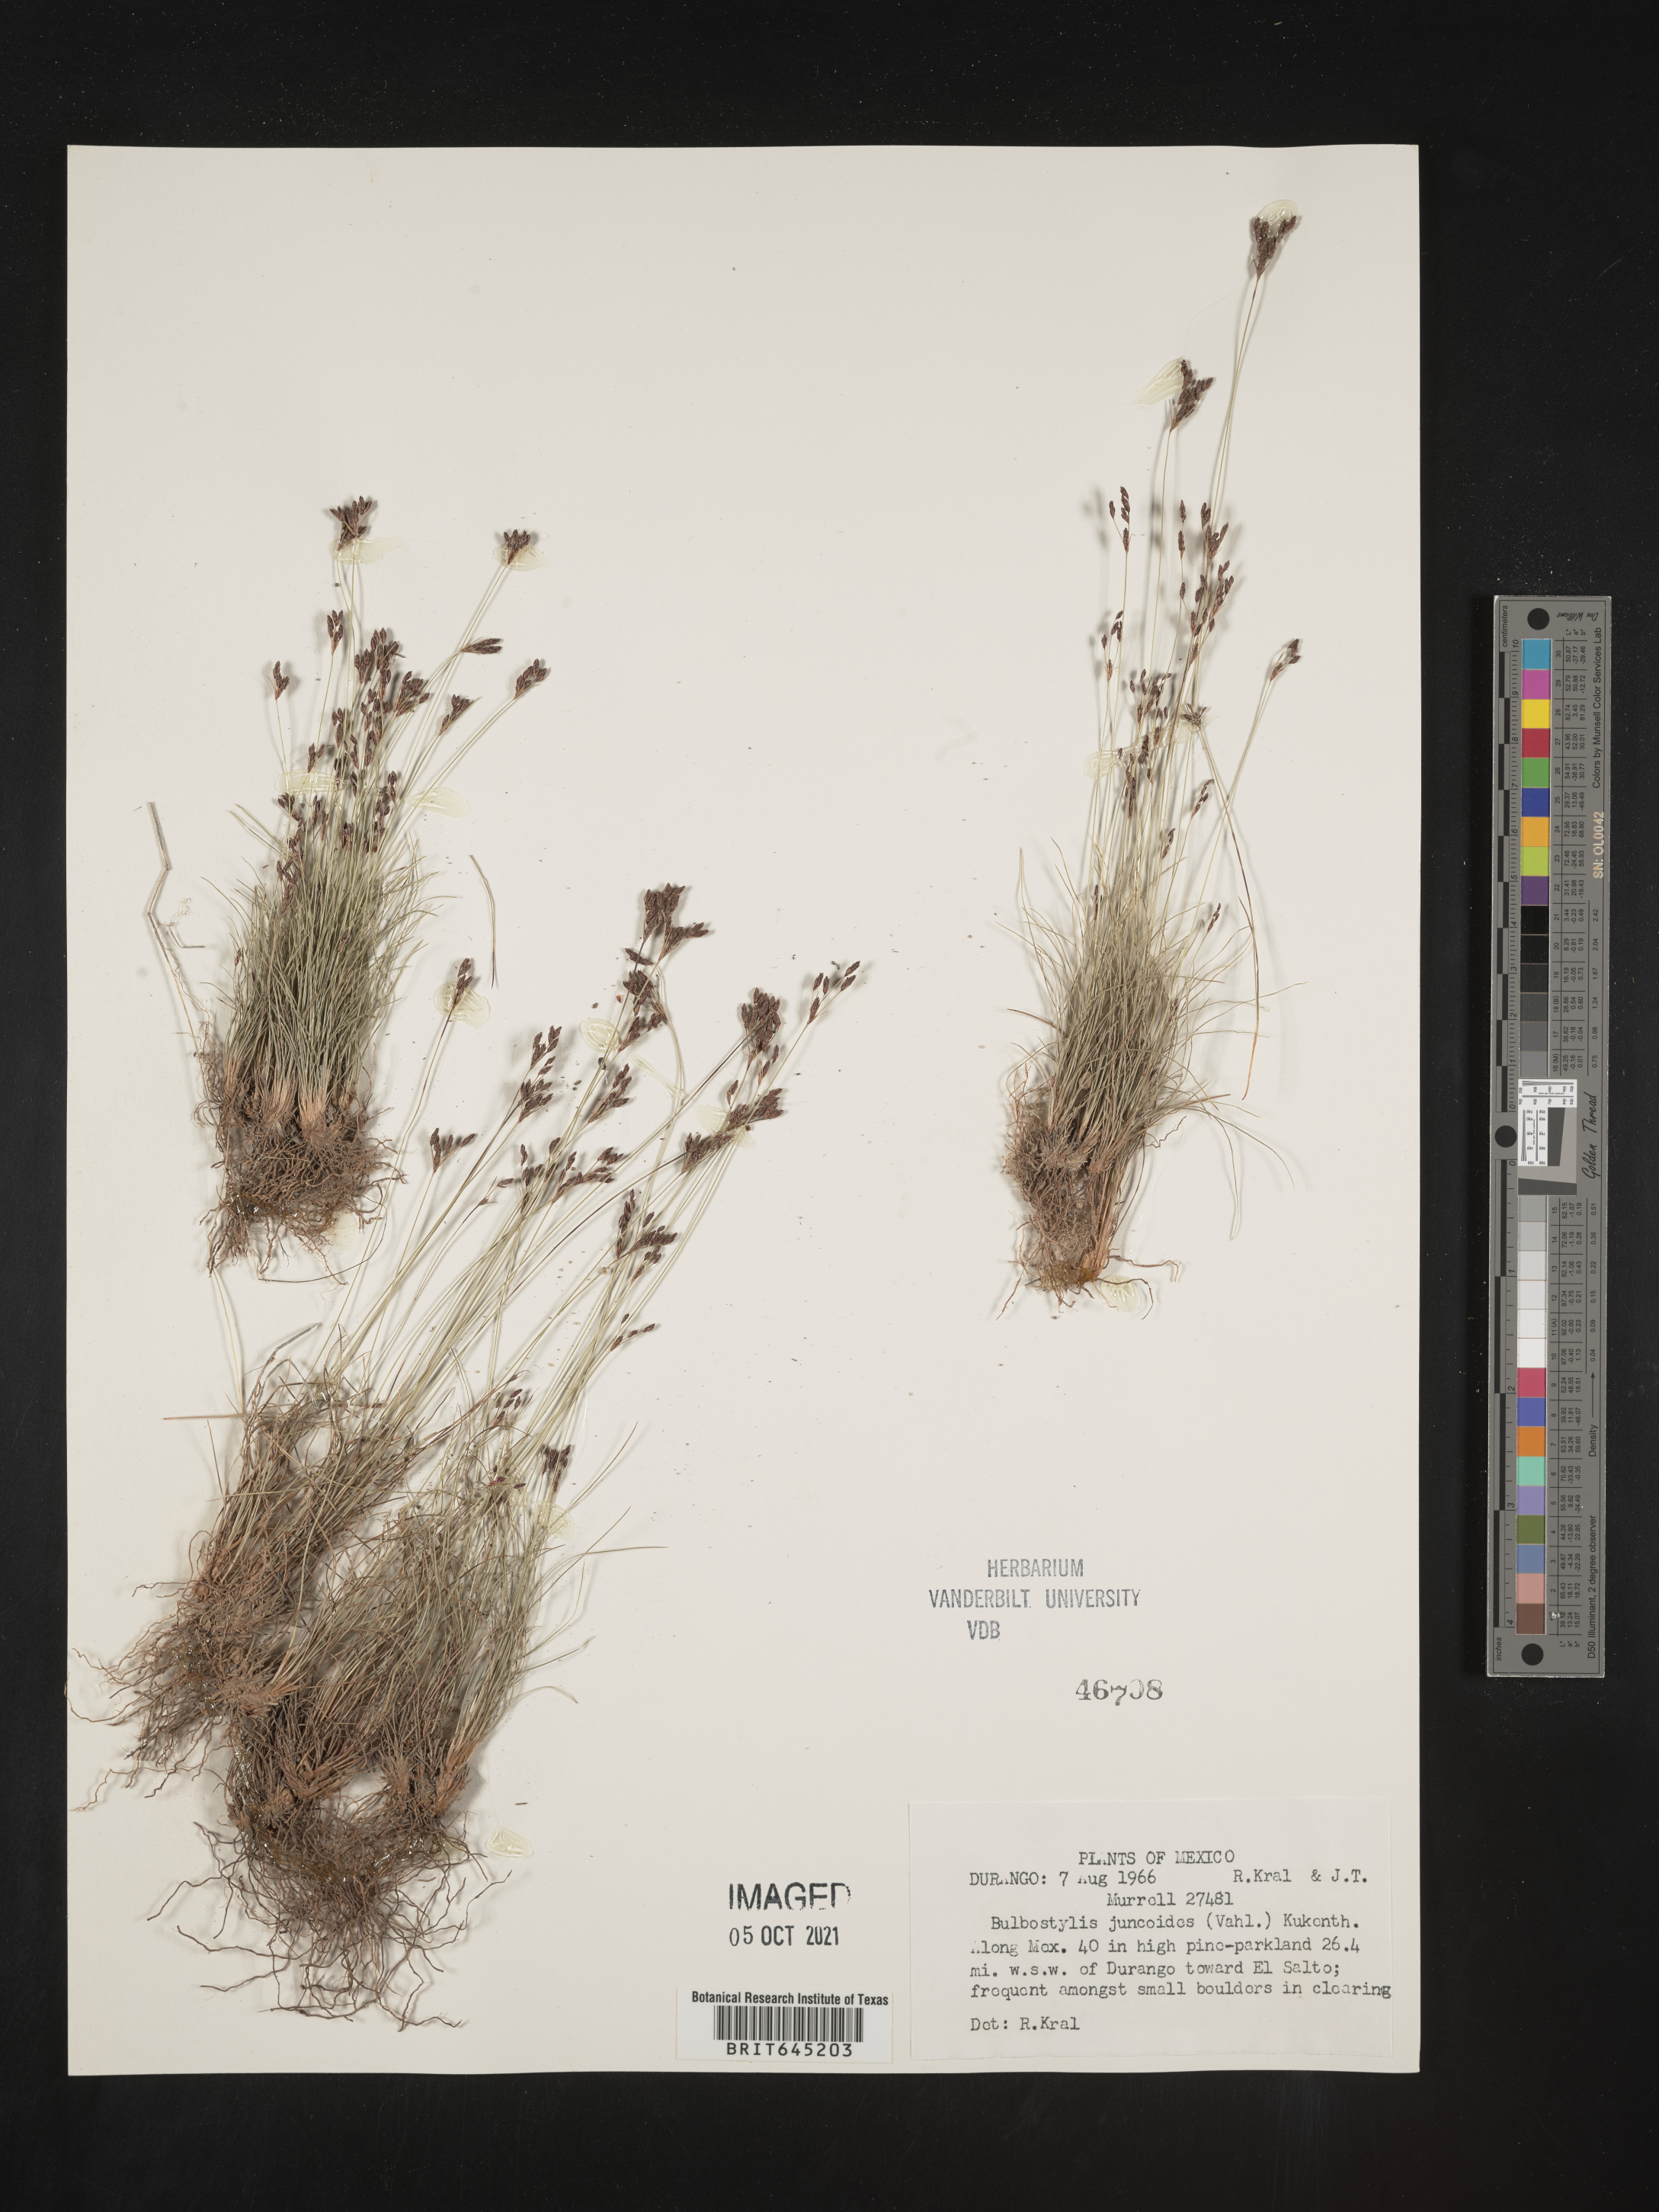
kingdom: Plantae
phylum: Tracheophyta
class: Liliopsida
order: Poales
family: Cyperaceae
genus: Bulbostylis
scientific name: Bulbostylis juncoides
